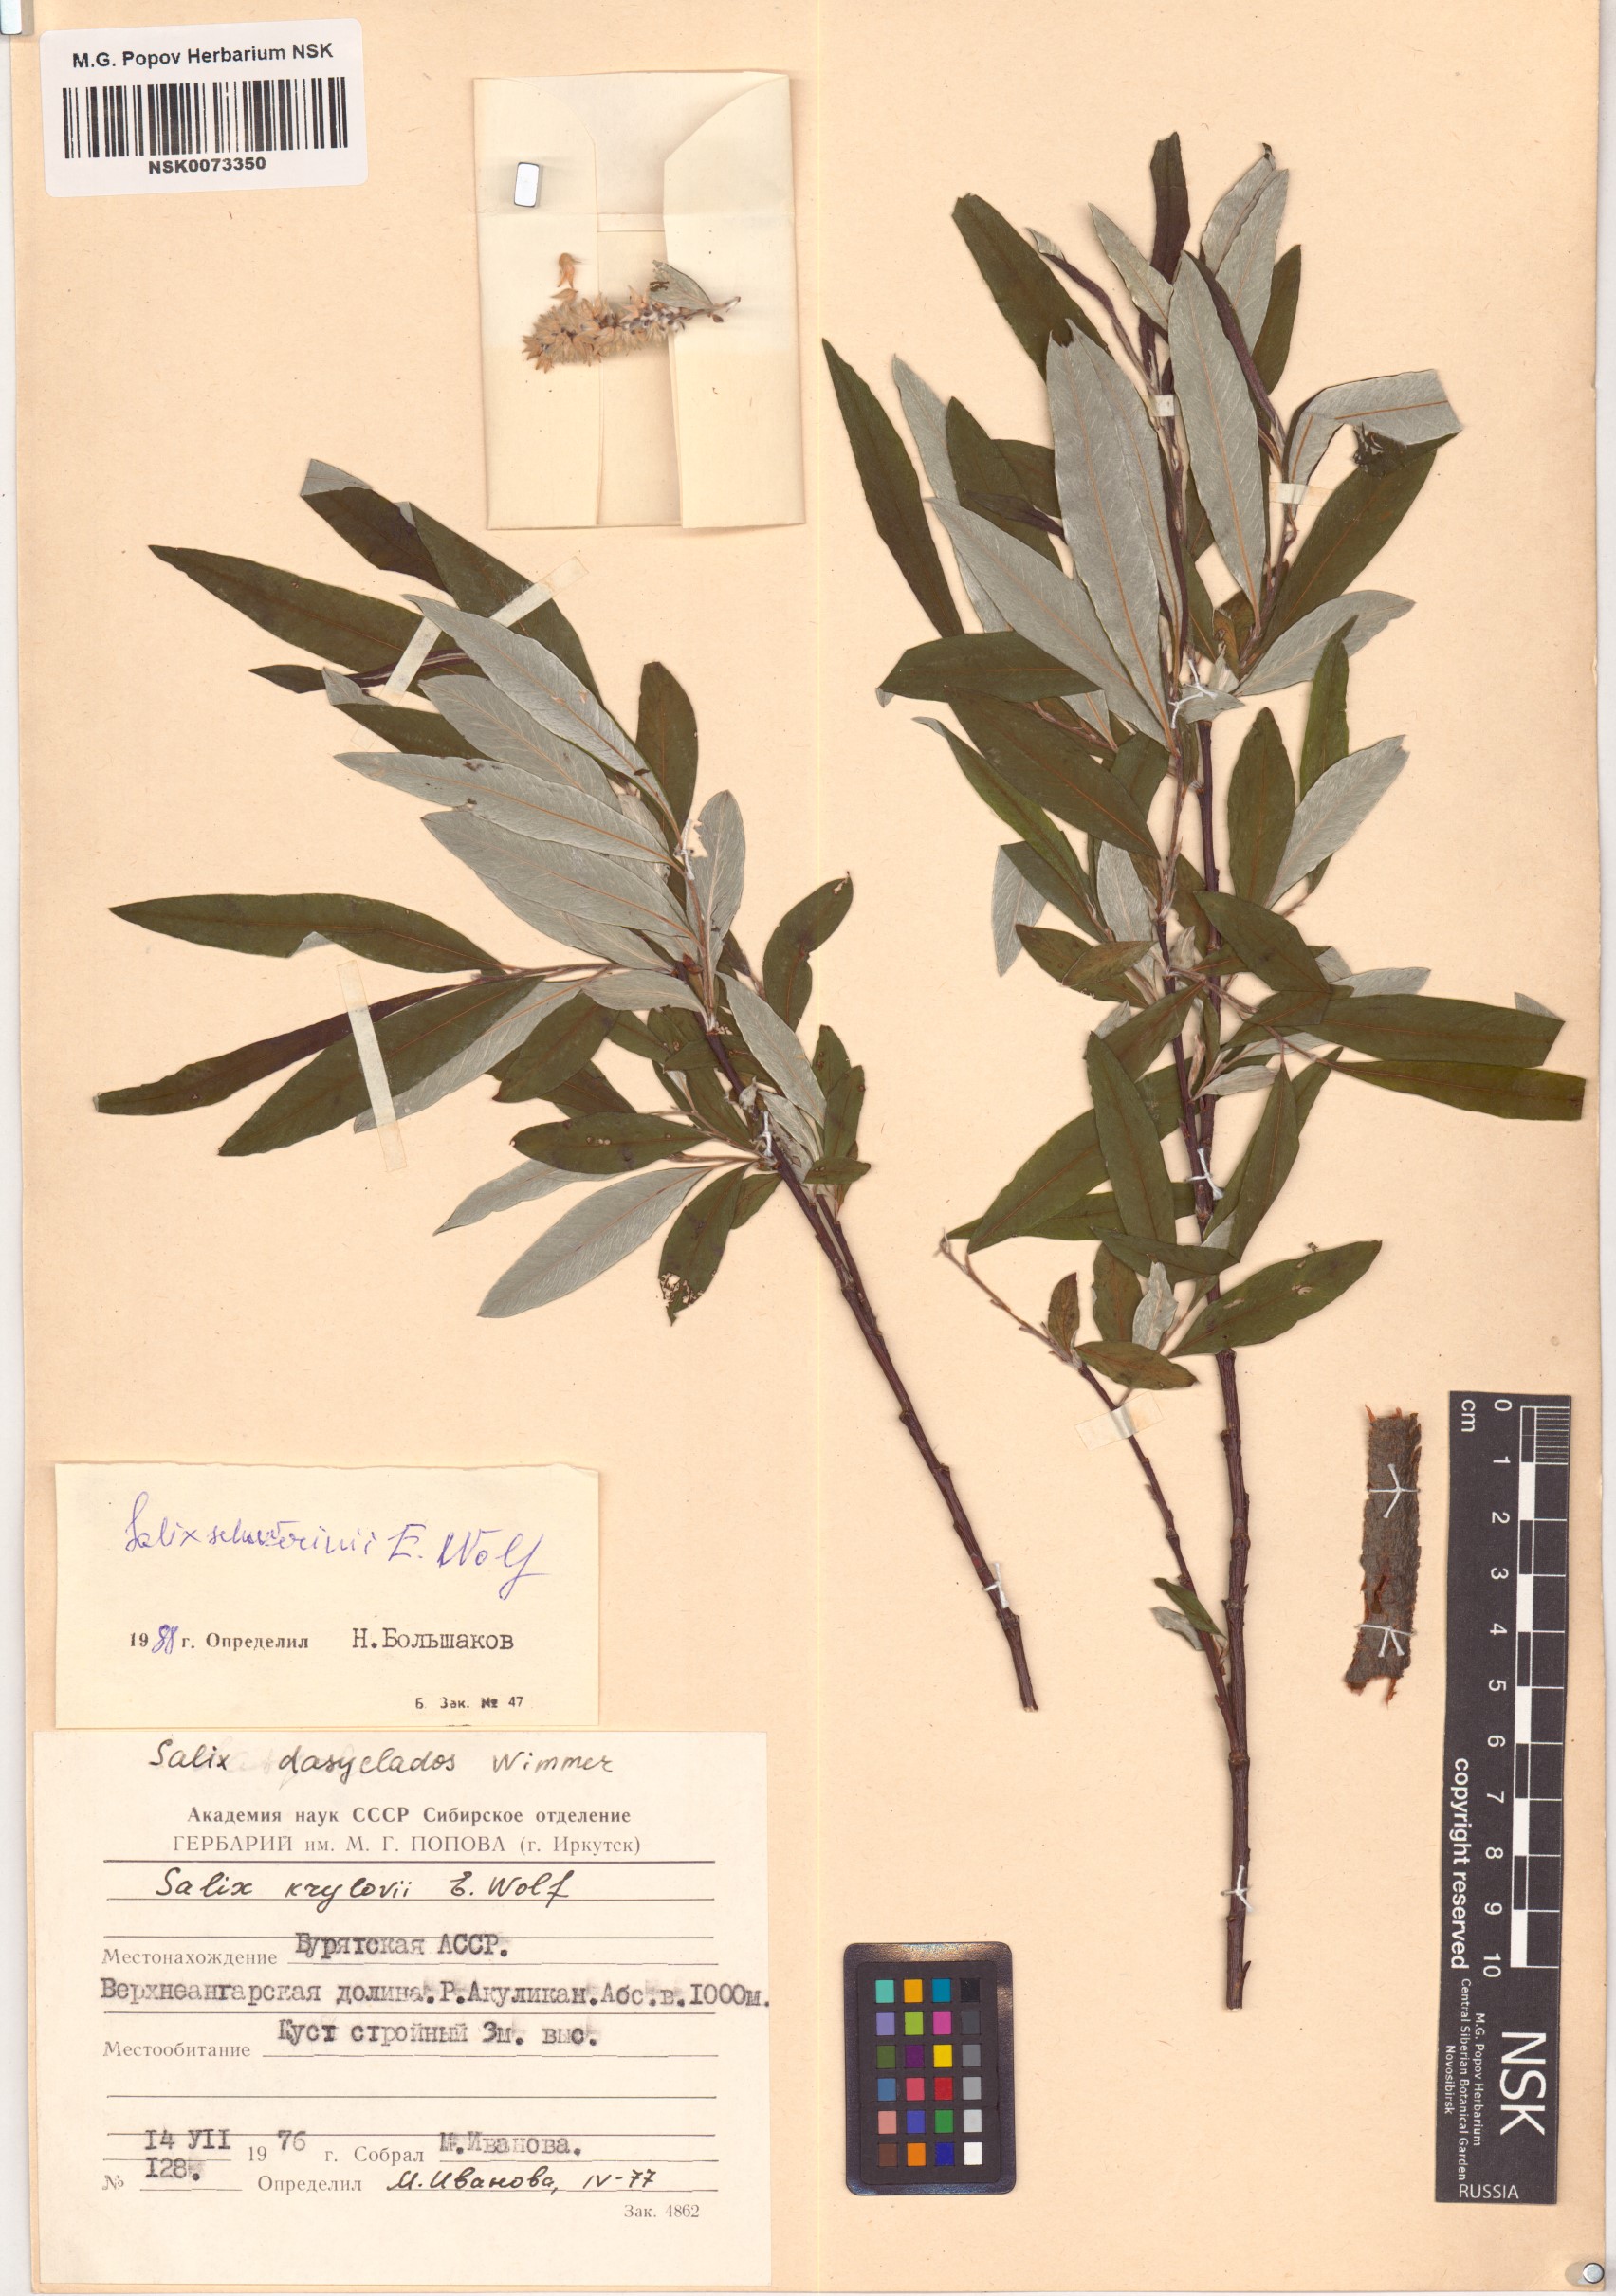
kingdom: Plantae
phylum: Tracheophyta
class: Magnoliopsida
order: Malpighiales
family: Salicaceae
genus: Salix
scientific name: Salix schwerinii
